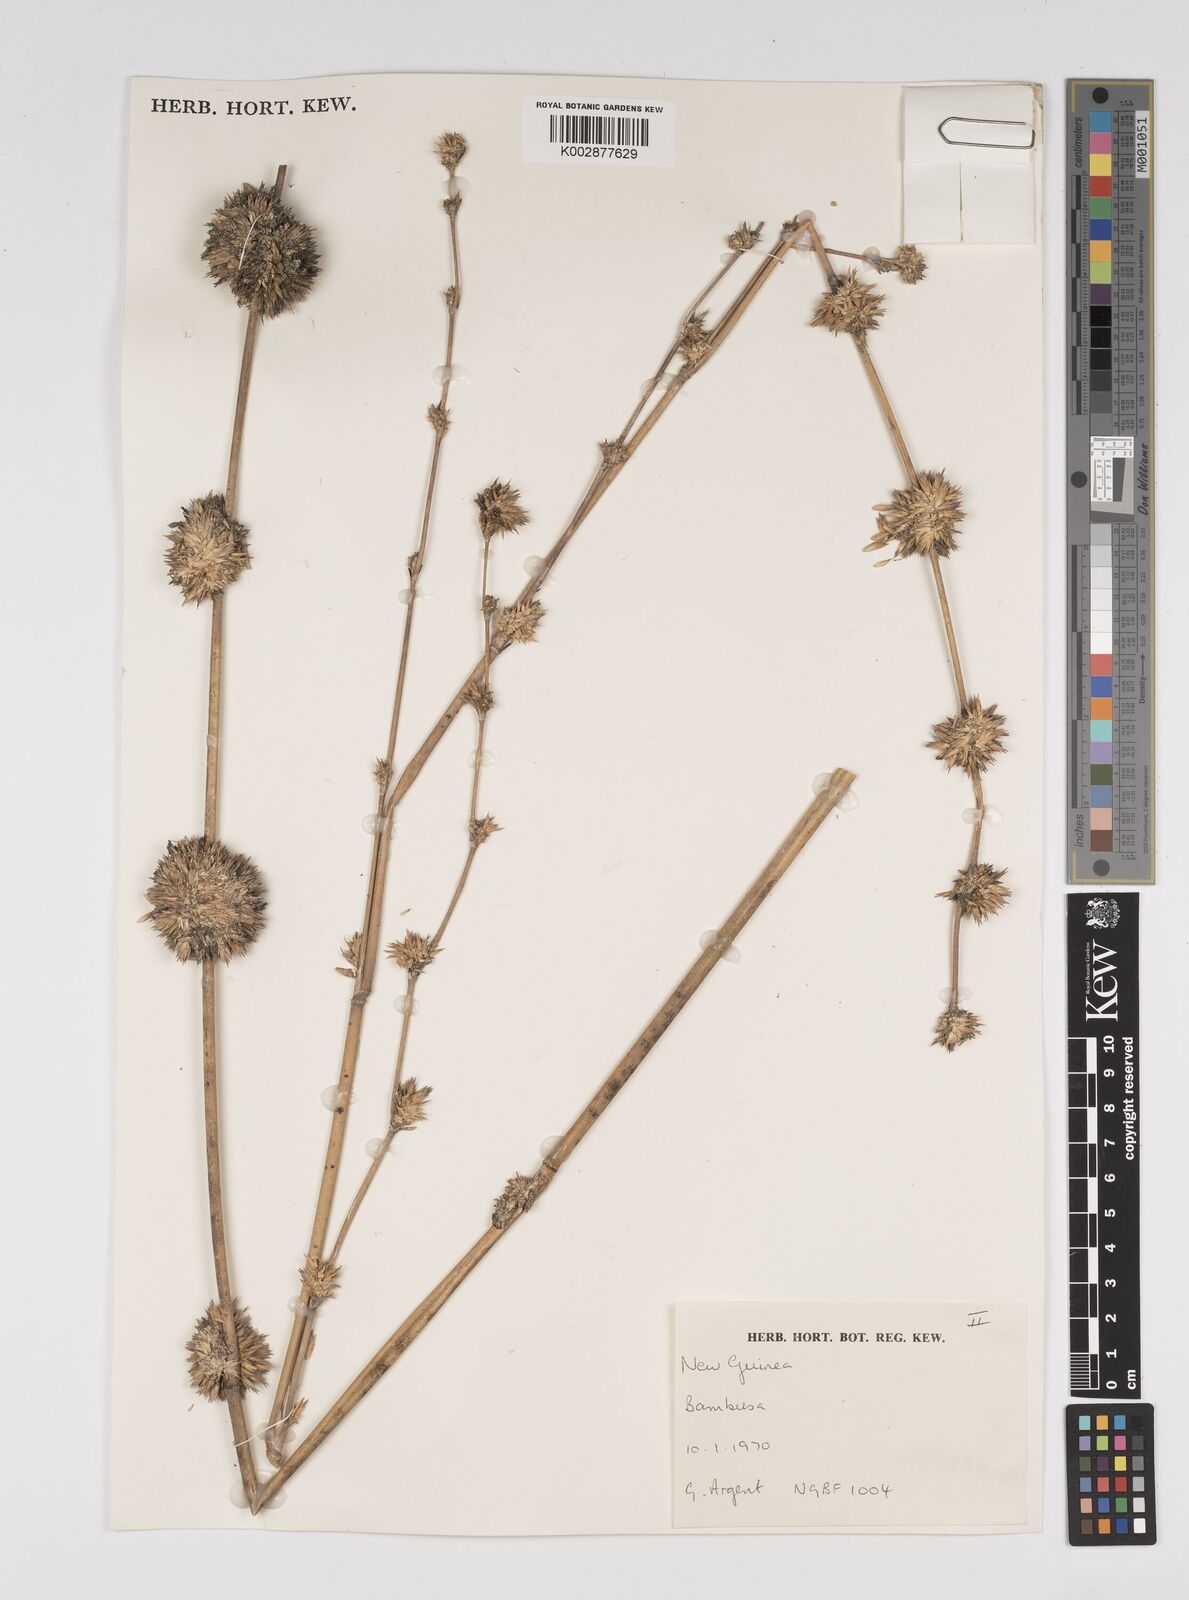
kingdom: Plantae
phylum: Tracheophyta
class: Liliopsida
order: Poales
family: Poaceae
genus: Dendrocalamus
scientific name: Dendrocalamus strictus
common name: Male bamboo
